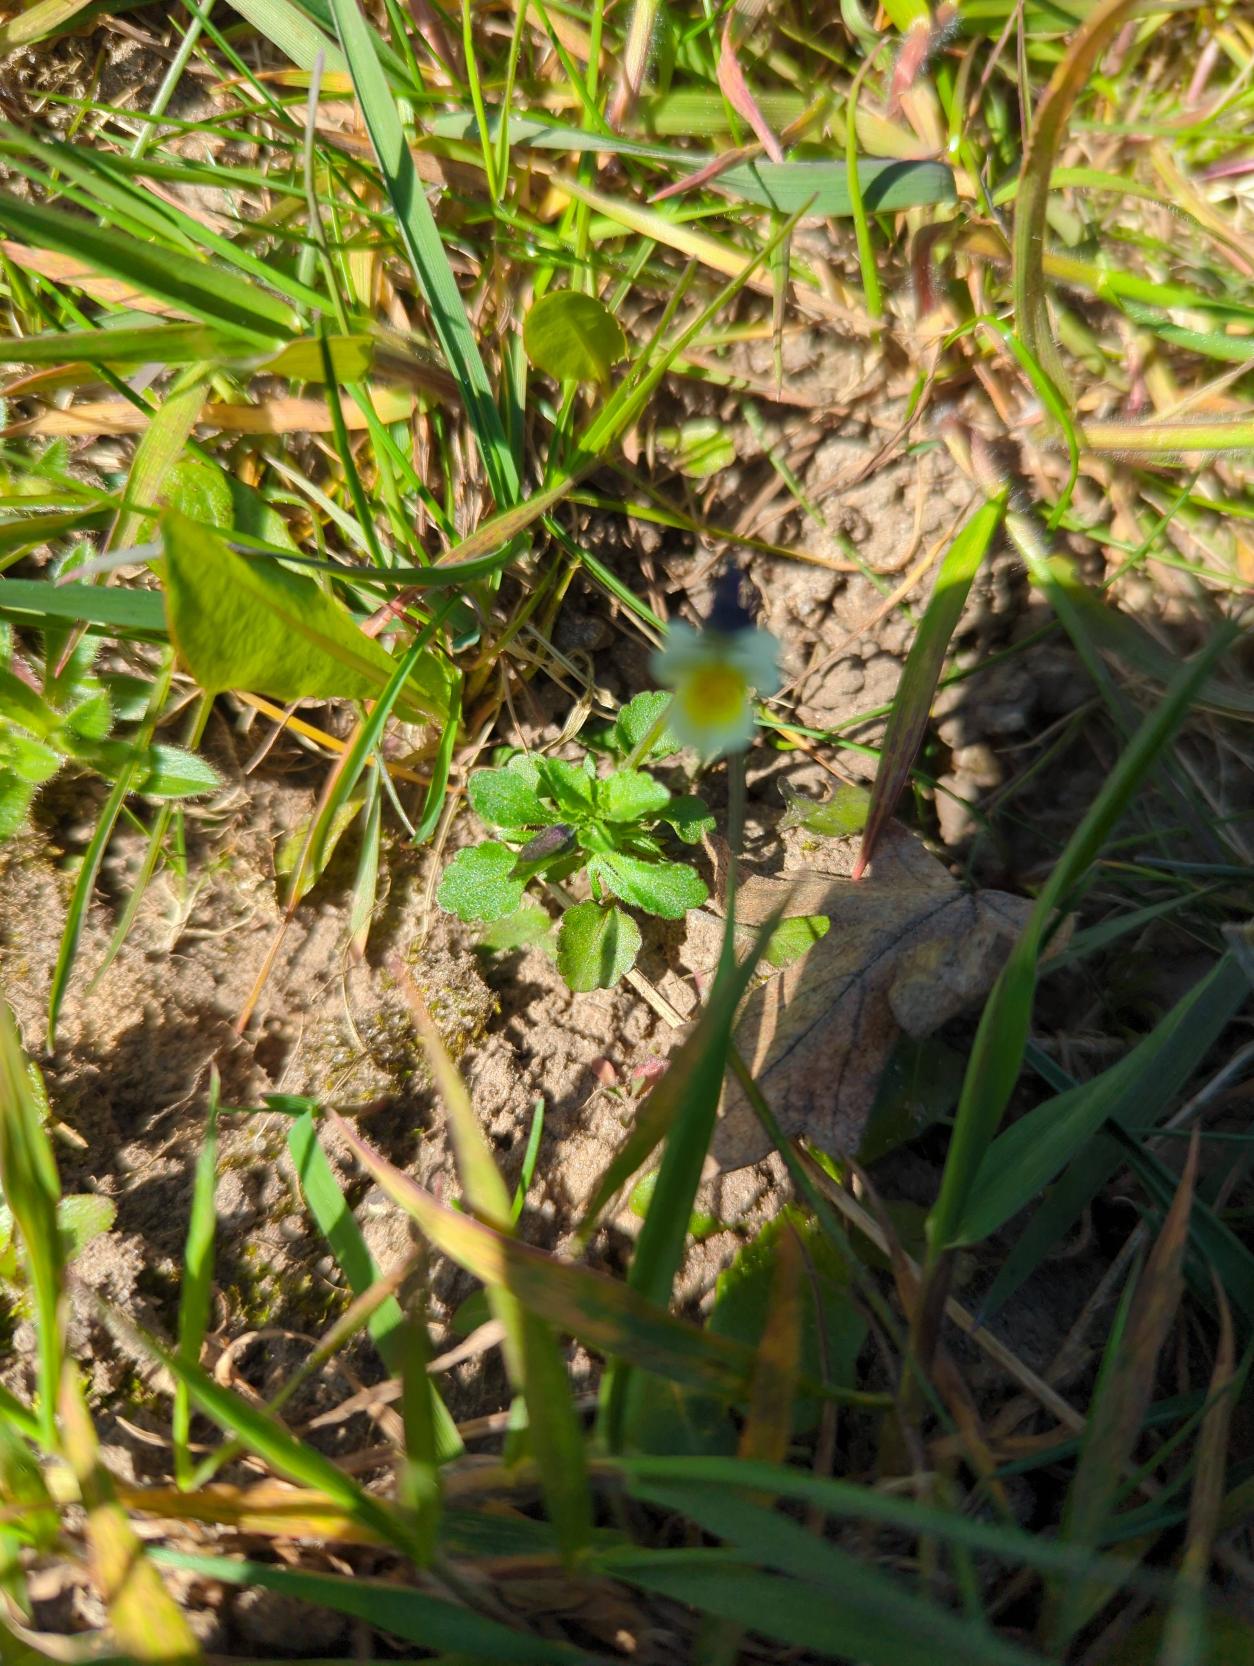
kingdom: Plantae
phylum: Tracheophyta
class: Magnoliopsida
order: Malpighiales
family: Violaceae
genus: Viola
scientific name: Viola arvensis
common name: Ager-stedmoderblomst
